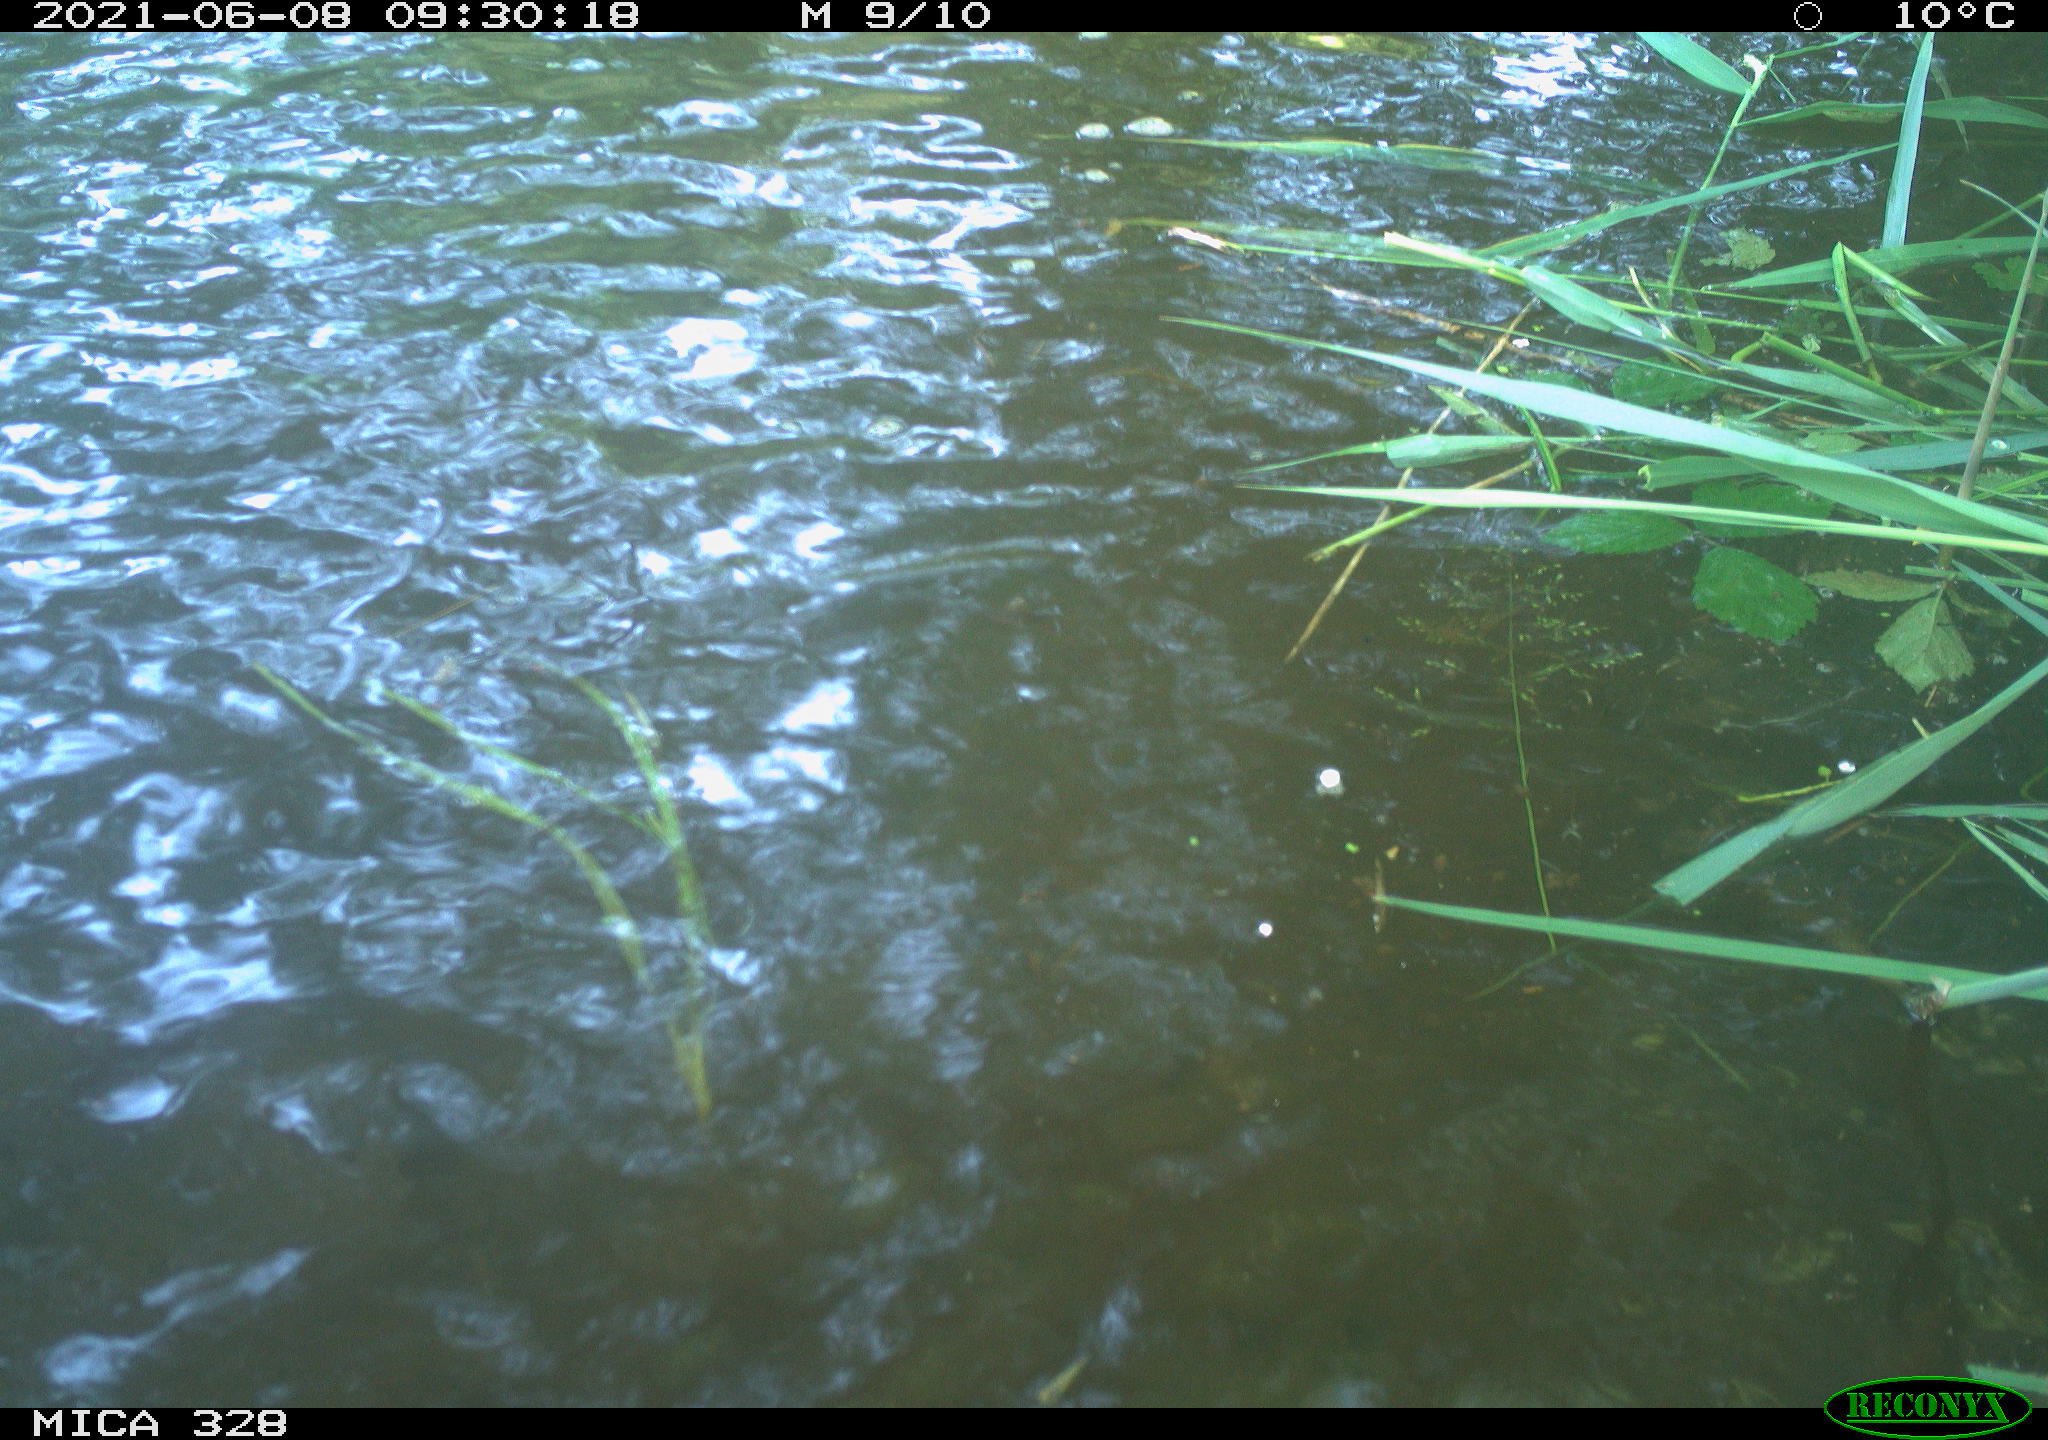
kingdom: Animalia
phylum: Chordata
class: Aves
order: Anseriformes
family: Anatidae
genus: Aix
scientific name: Aix galericulata
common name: Mandarin duck
